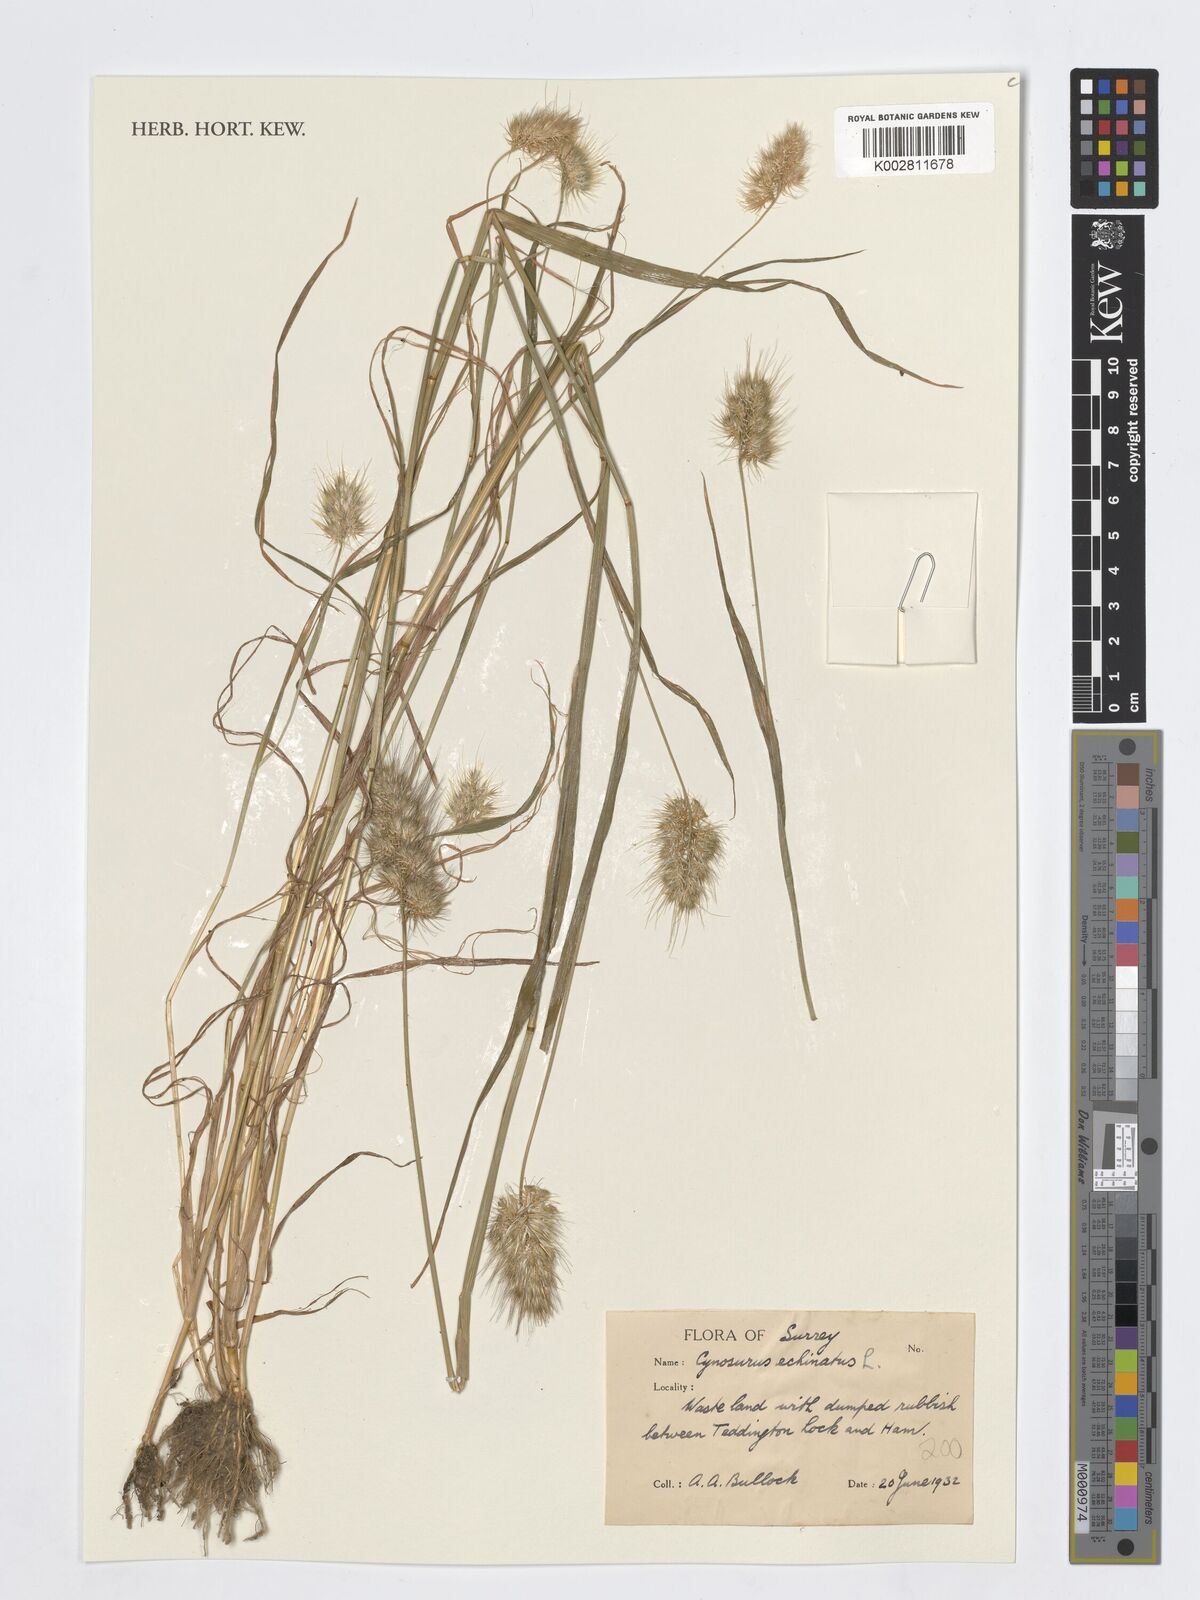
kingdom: Plantae
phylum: Tracheophyta
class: Liliopsida
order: Poales
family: Poaceae
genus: Cynosurus
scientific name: Cynosurus echinatus
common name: Rough dog's-tail
